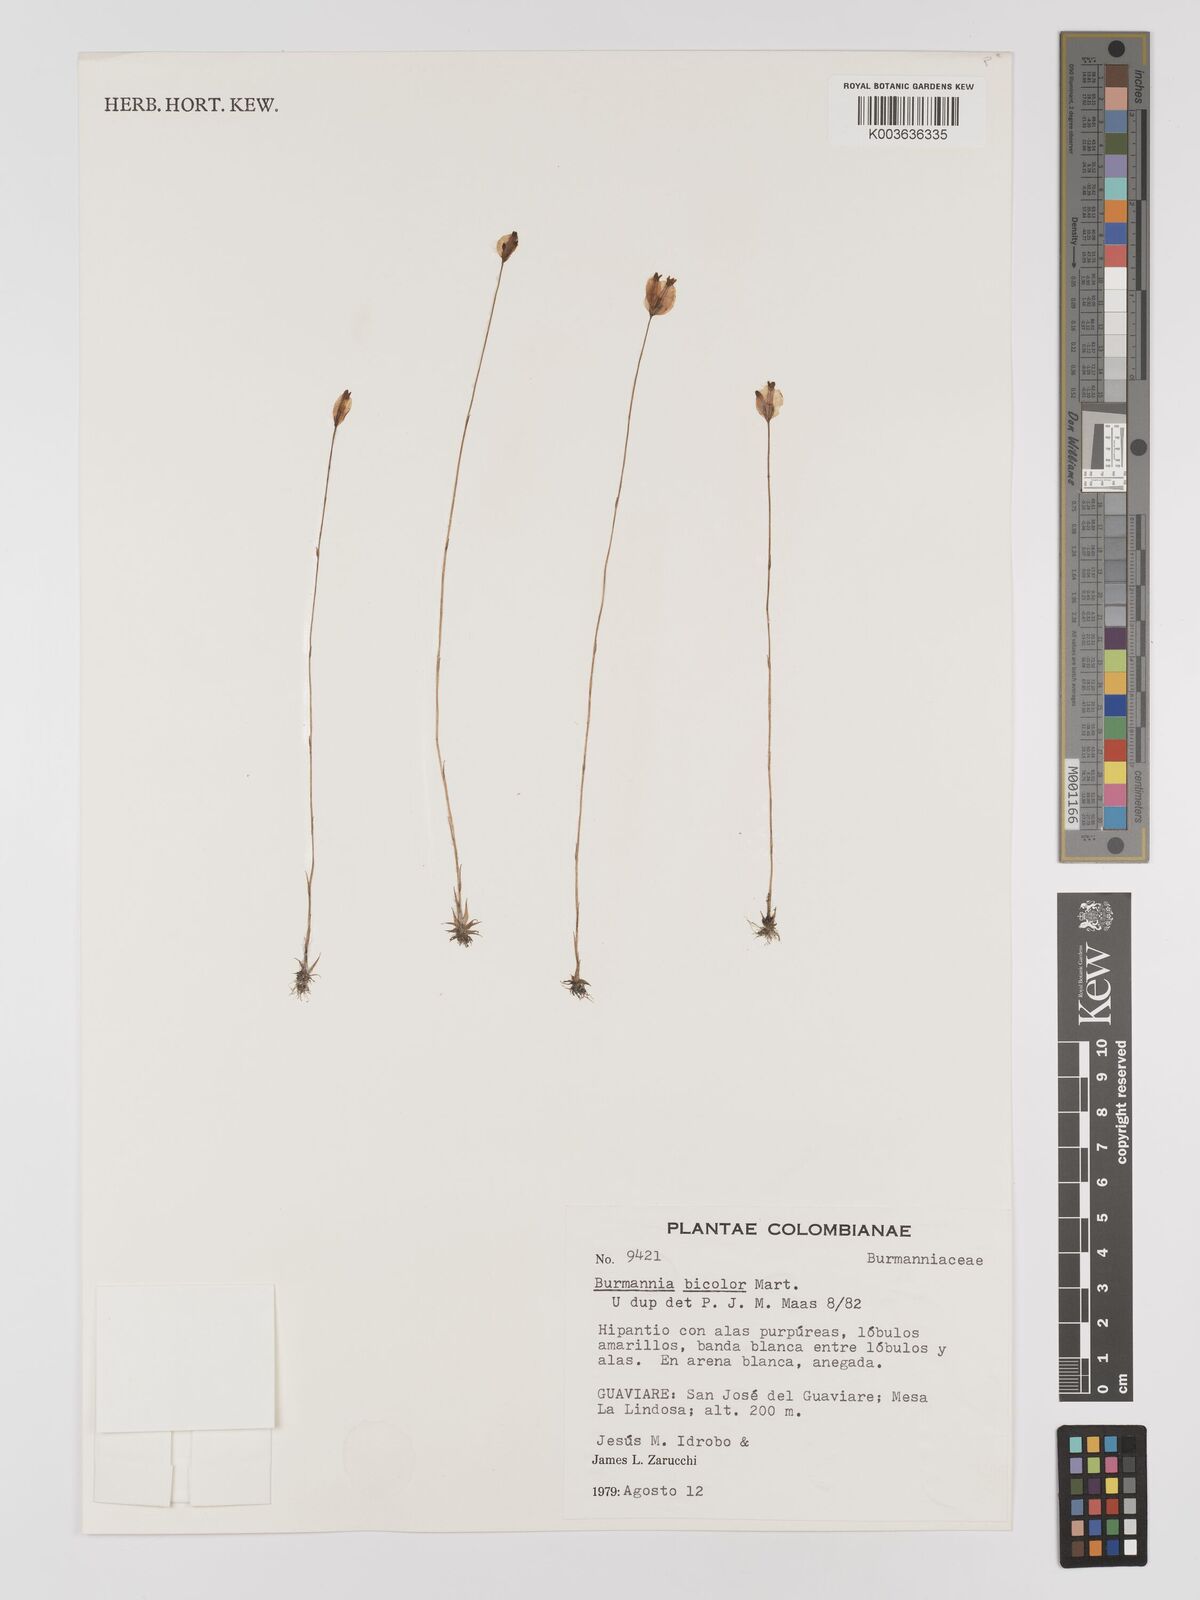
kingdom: Plantae
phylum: Tracheophyta
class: Liliopsida
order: Dioscoreales
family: Burmanniaceae
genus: Burmannia
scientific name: Burmannia bicolor
